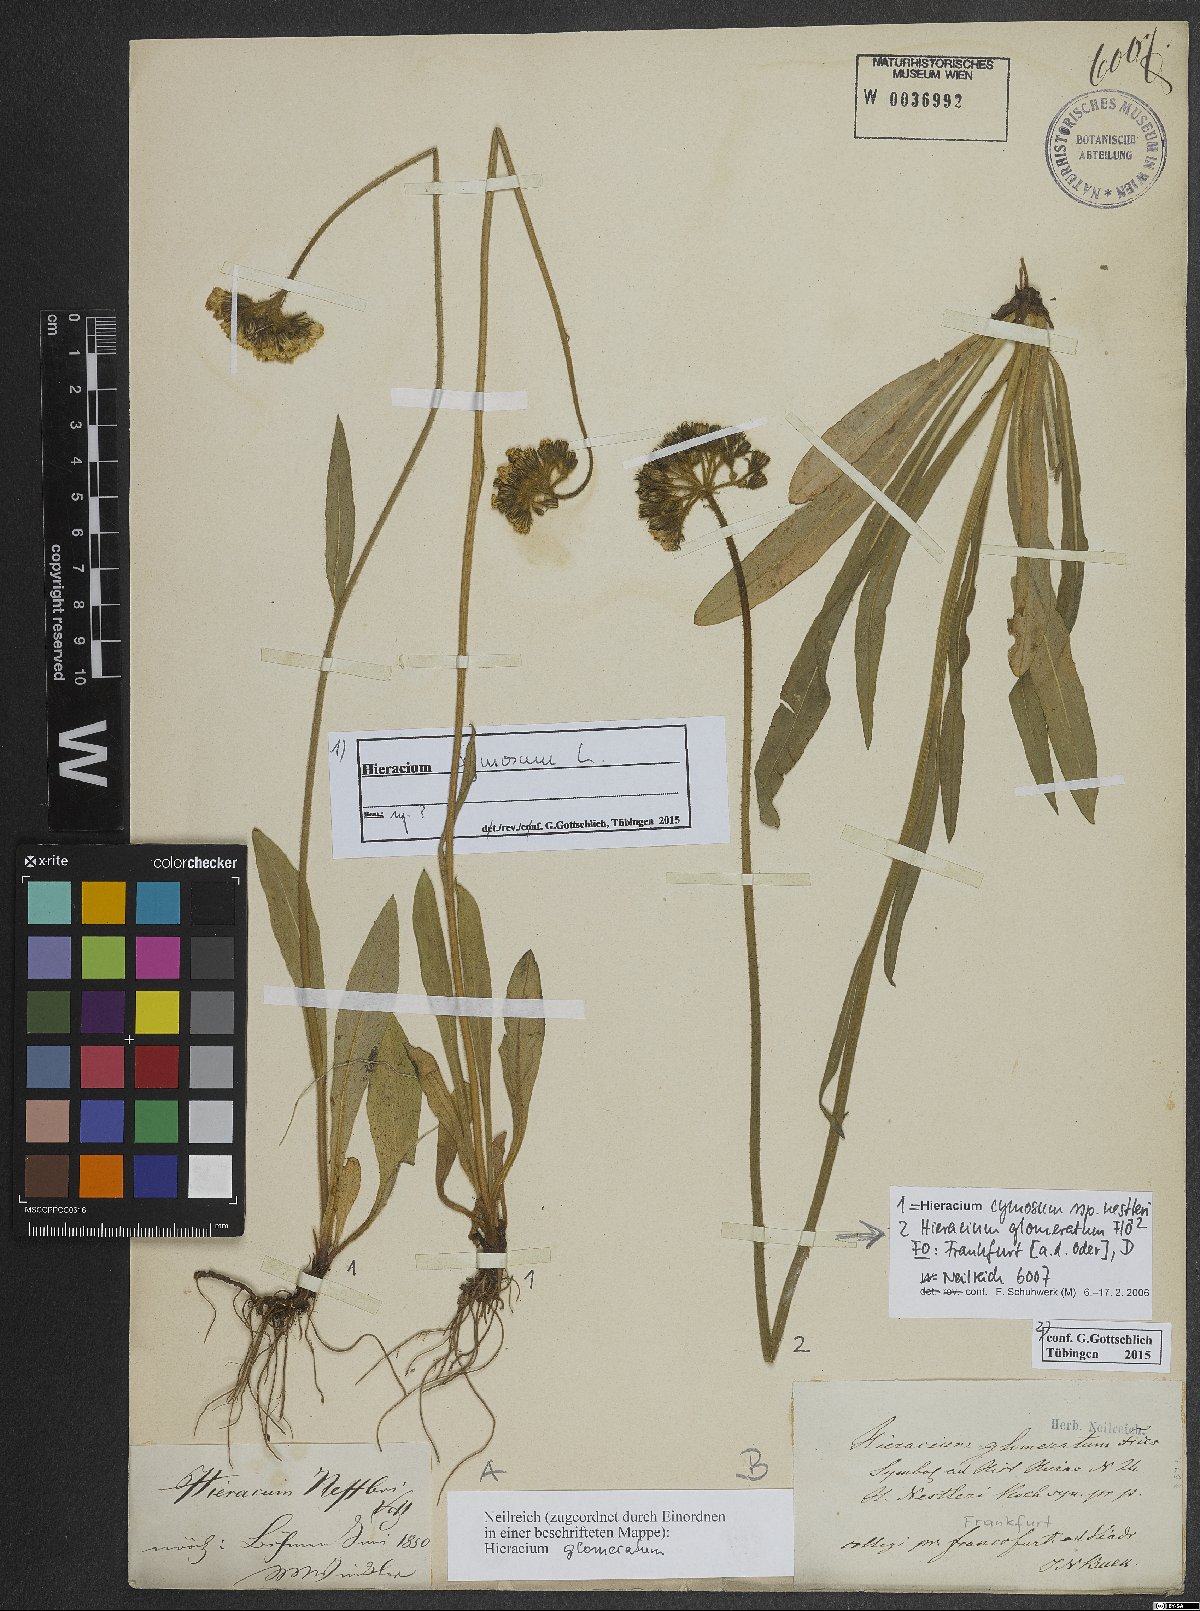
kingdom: Plantae
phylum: Tracheophyta
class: Magnoliopsida
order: Asterales
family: Asteraceae
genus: Pilosella
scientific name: Pilosella glomerata
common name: Queen devil hawkweed
